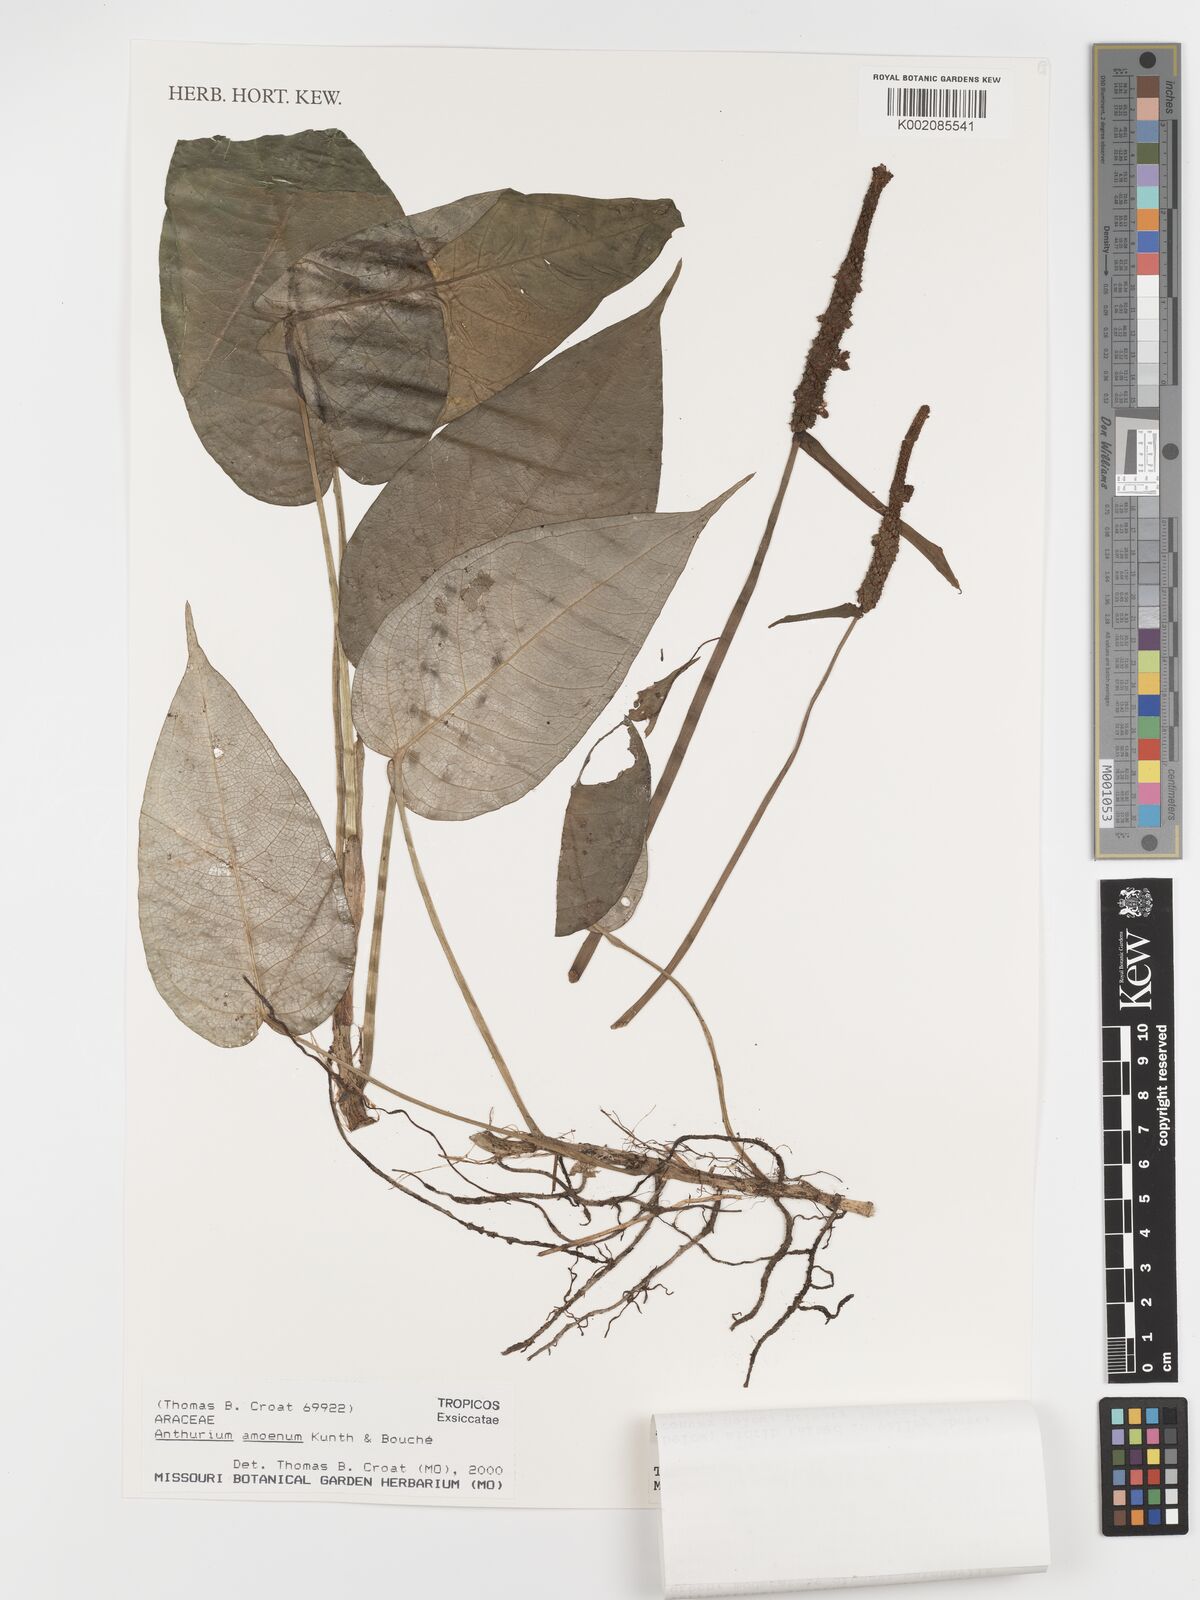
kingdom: Plantae
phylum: Tracheophyta
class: Liliopsida
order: Alismatales
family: Araceae
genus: Anthurium
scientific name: Anthurium amoenum
